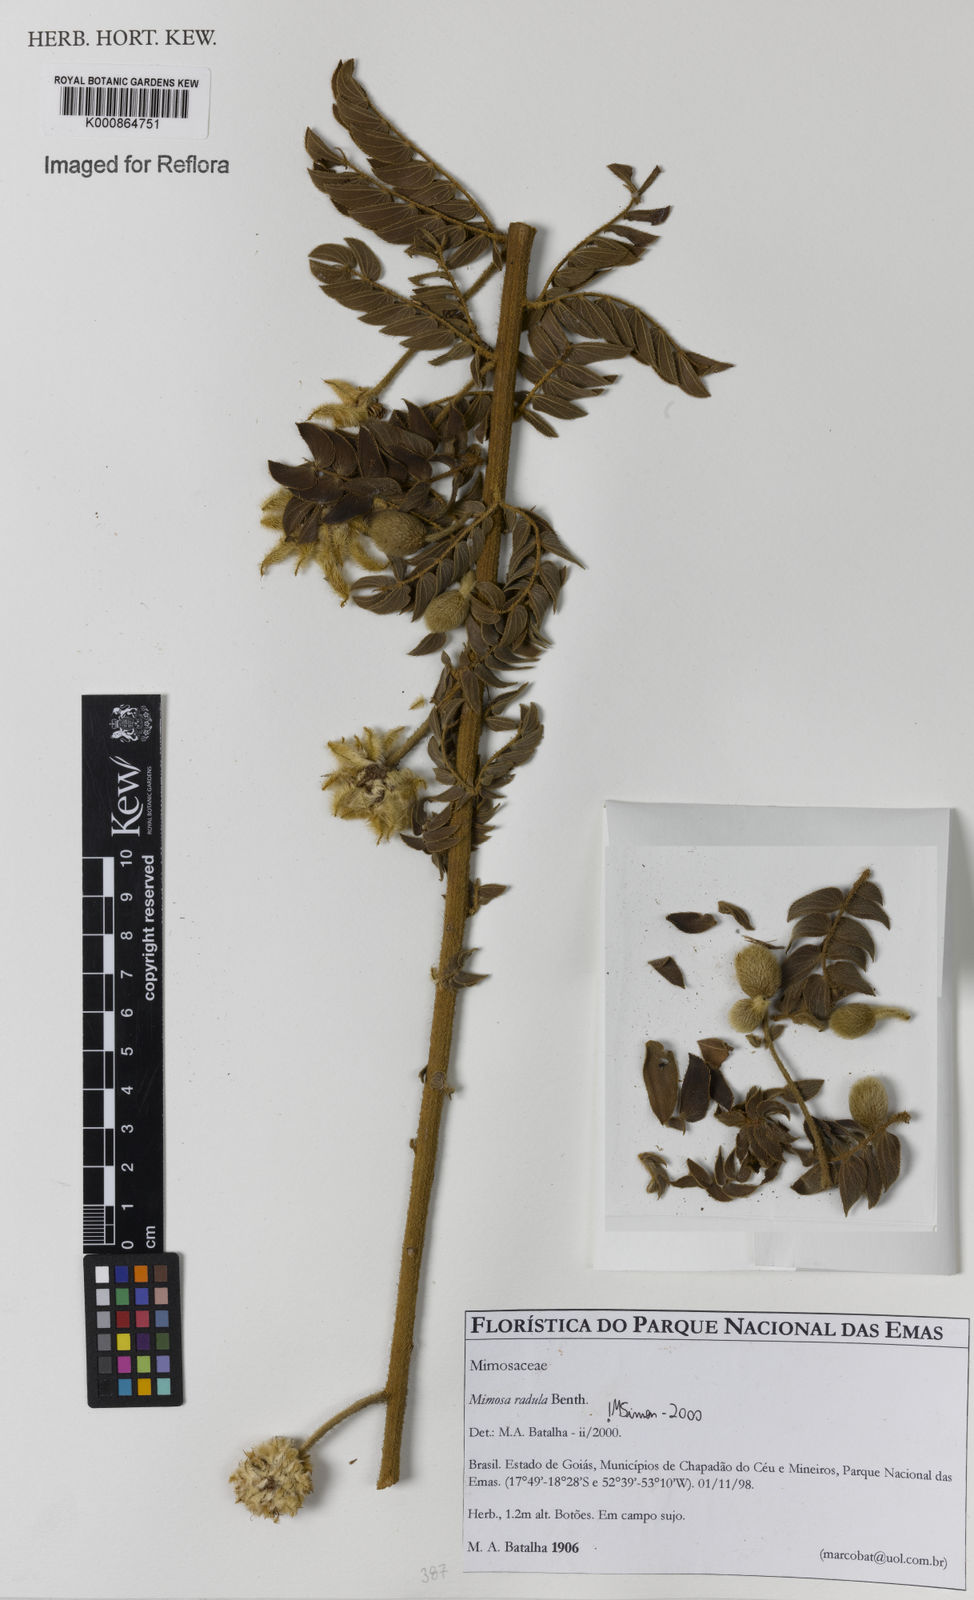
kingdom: Plantae
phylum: Tracheophyta
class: Magnoliopsida
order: Fabales
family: Fabaceae
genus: Mimosa
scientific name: Mimosa radula
